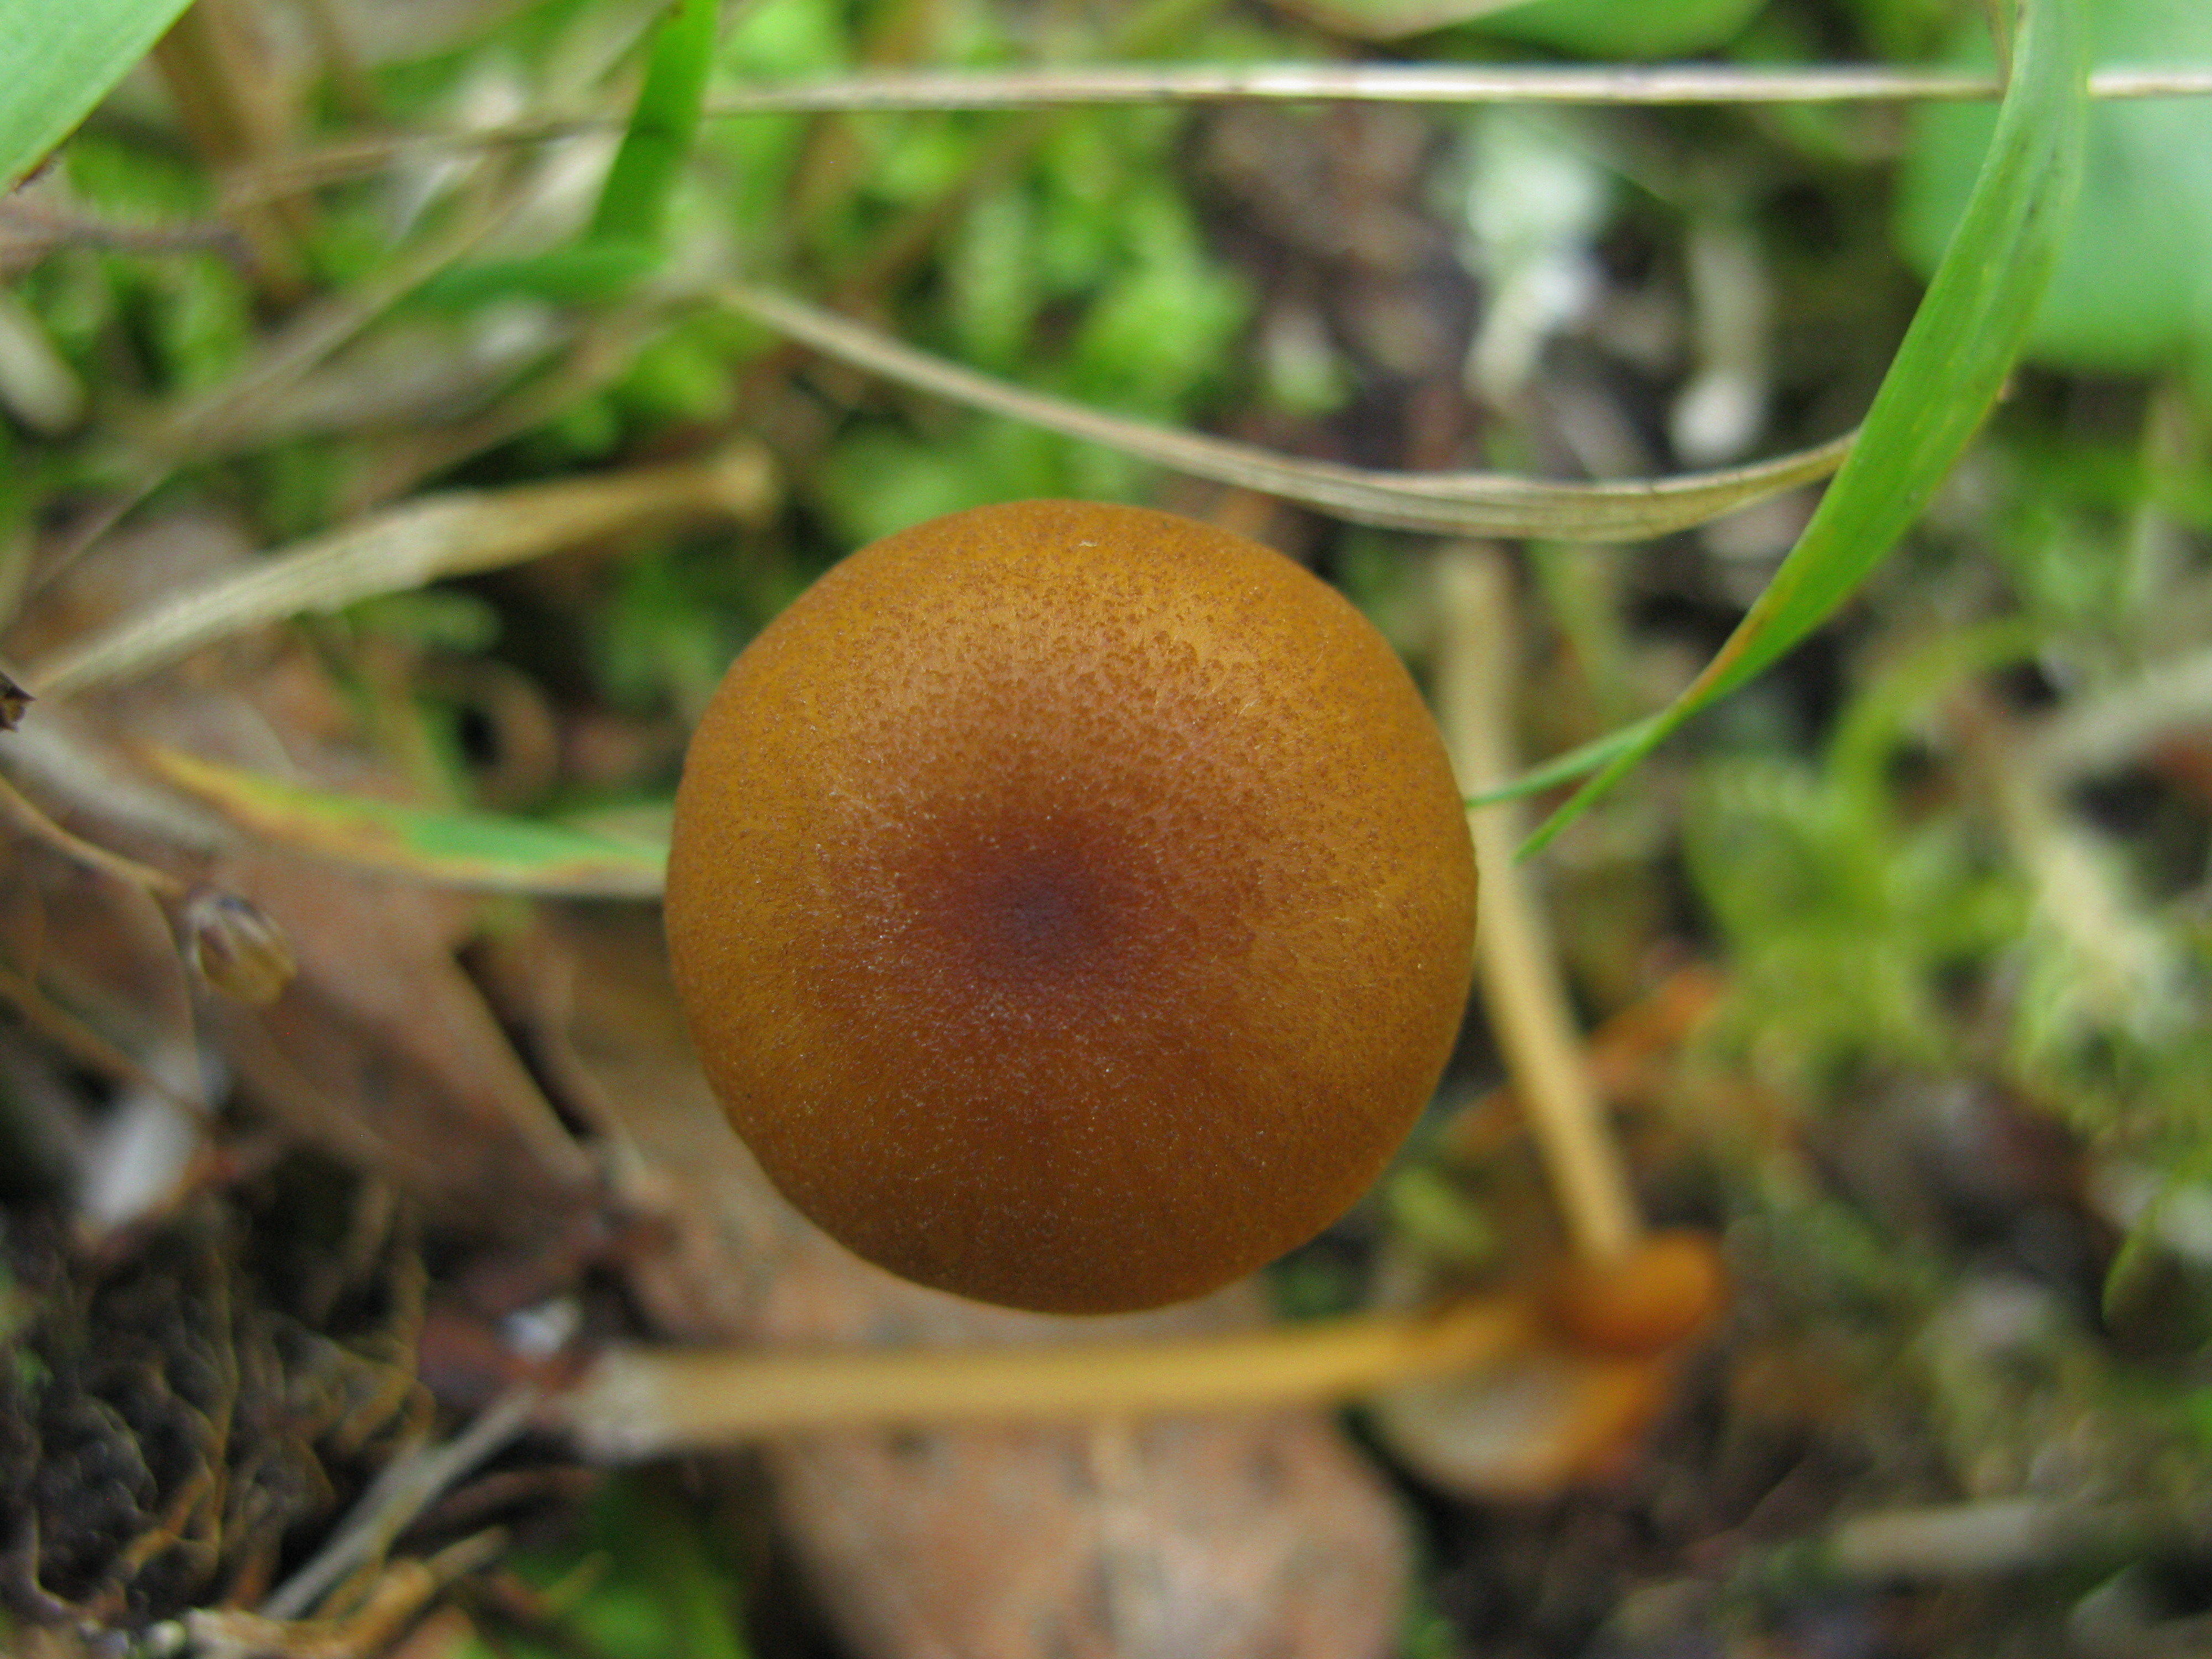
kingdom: Fungi
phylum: Basidiomycota
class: Agaricomycetes
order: Agaricales
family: Entolomataceae
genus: Entoloma
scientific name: Entoloma formosum
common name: Pretty pinkgill
